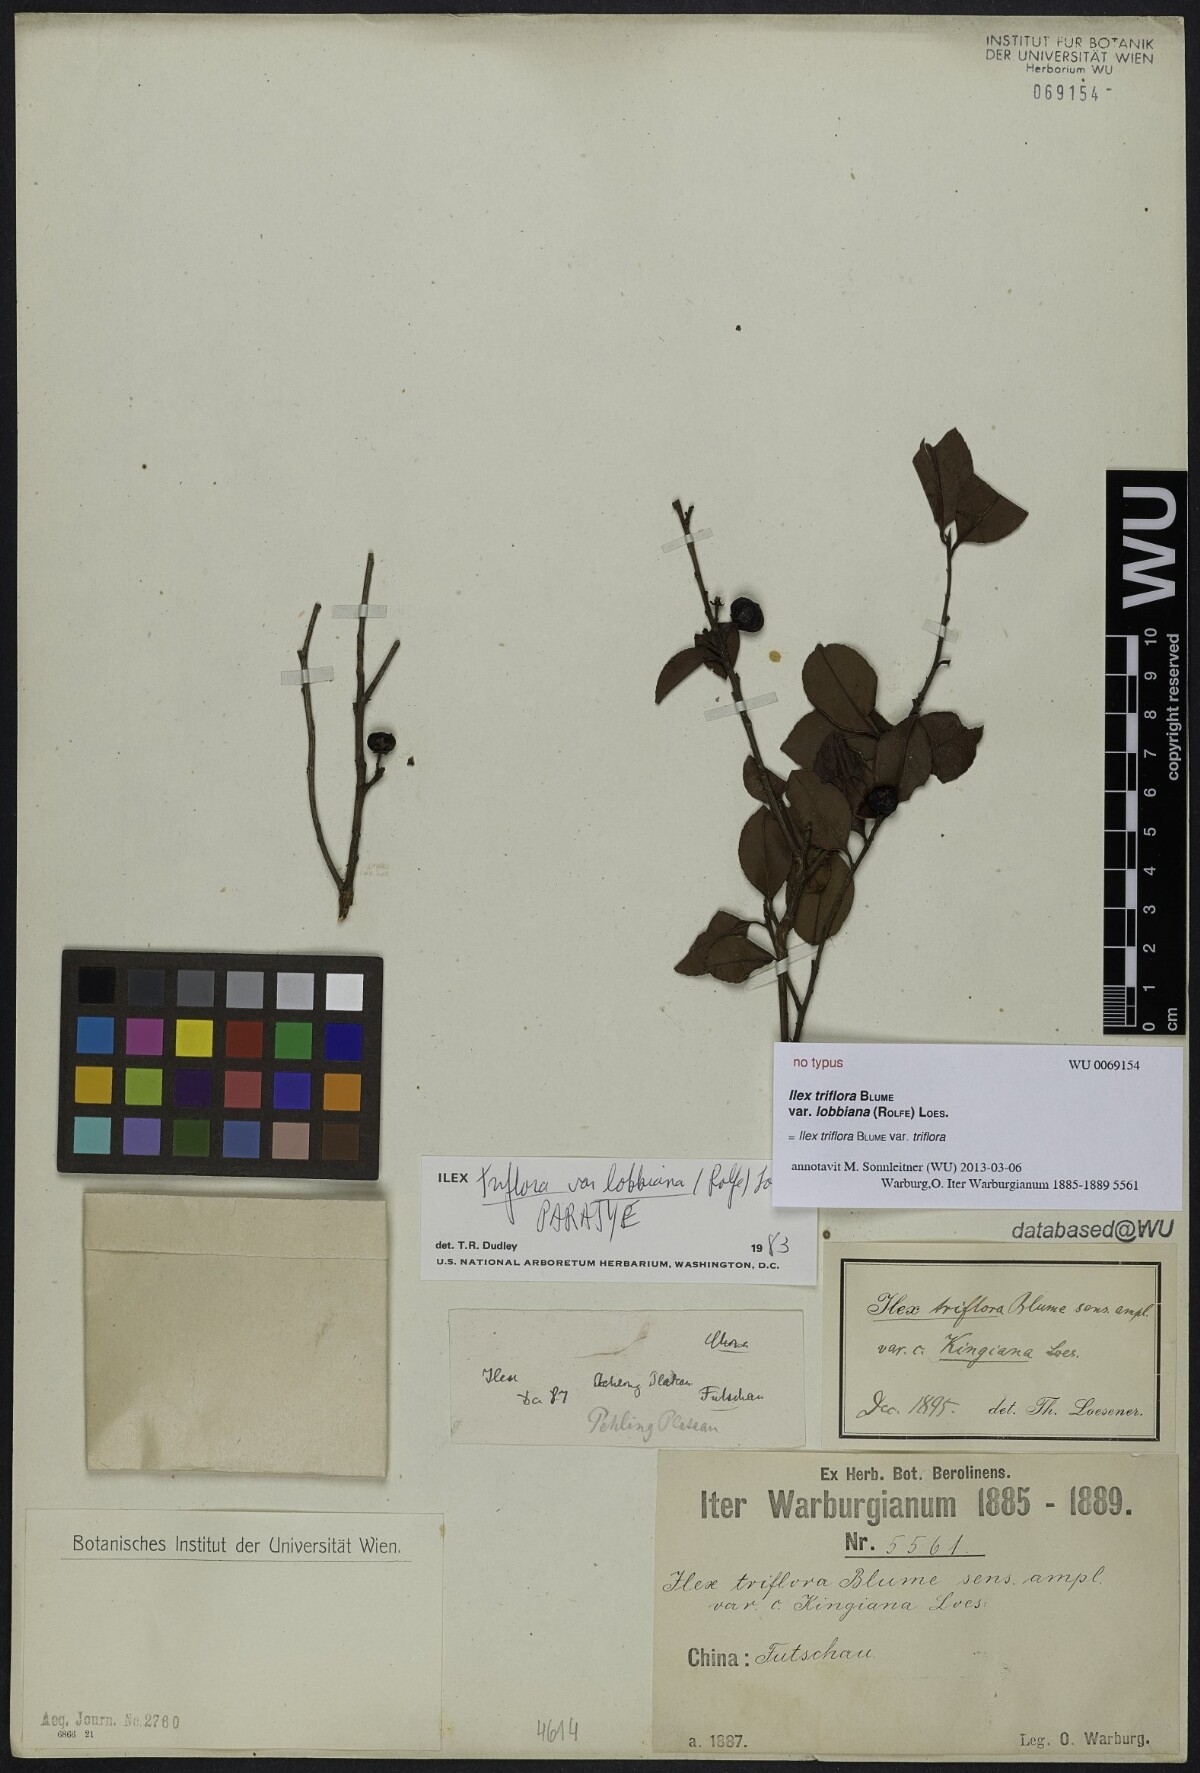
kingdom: Plantae
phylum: Tracheophyta
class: Magnoliopsida
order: Aquifoliales
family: Aquifoliaceae
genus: Ilex
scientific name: Ilex triflora
